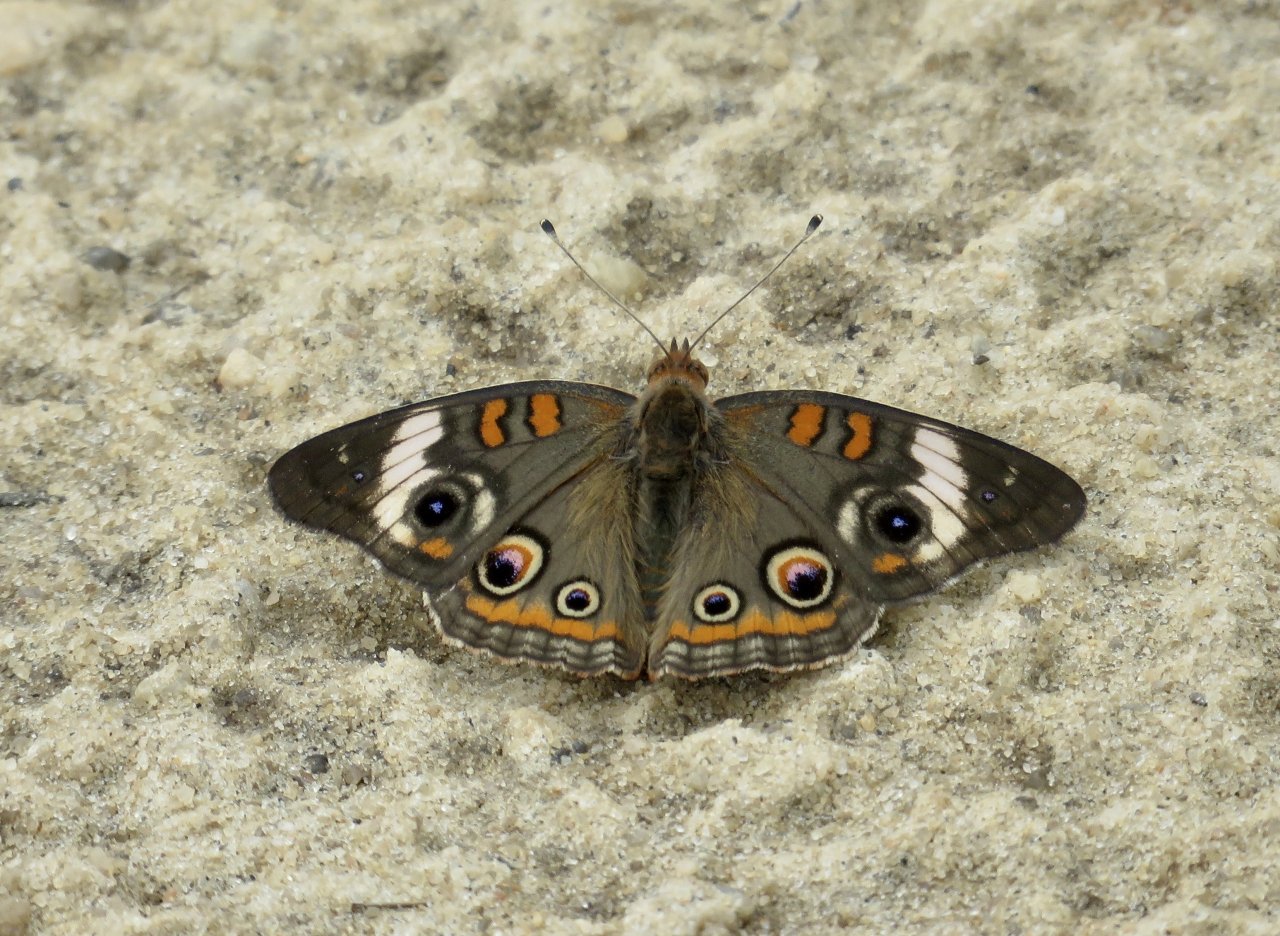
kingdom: Animalia
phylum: Arthropoda
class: Insecta
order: Lepidoptera
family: Nymphalidae
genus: Junonia
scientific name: Junonia coenia
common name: Common Buckeye
